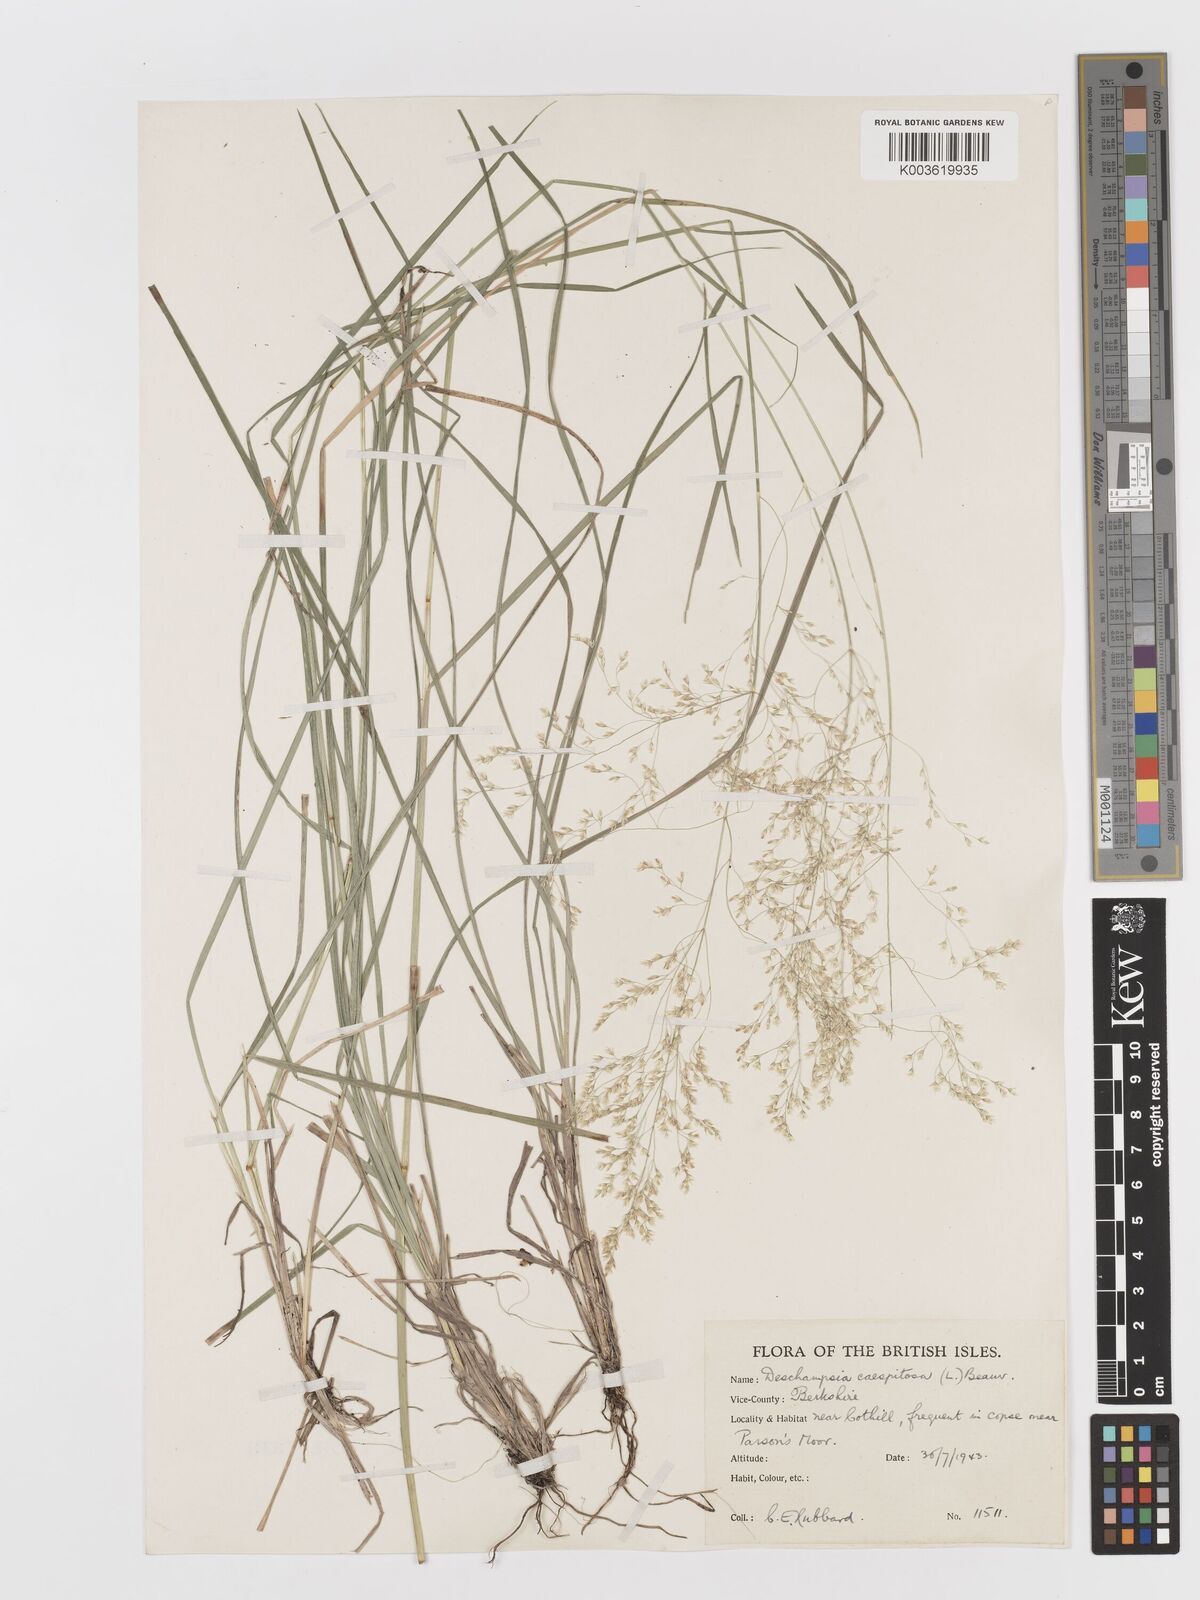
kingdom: Plantae
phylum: Tracheophyta
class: Liliopsida
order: Poales
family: Poaceae
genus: Deschampsia
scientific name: Deschampsia
